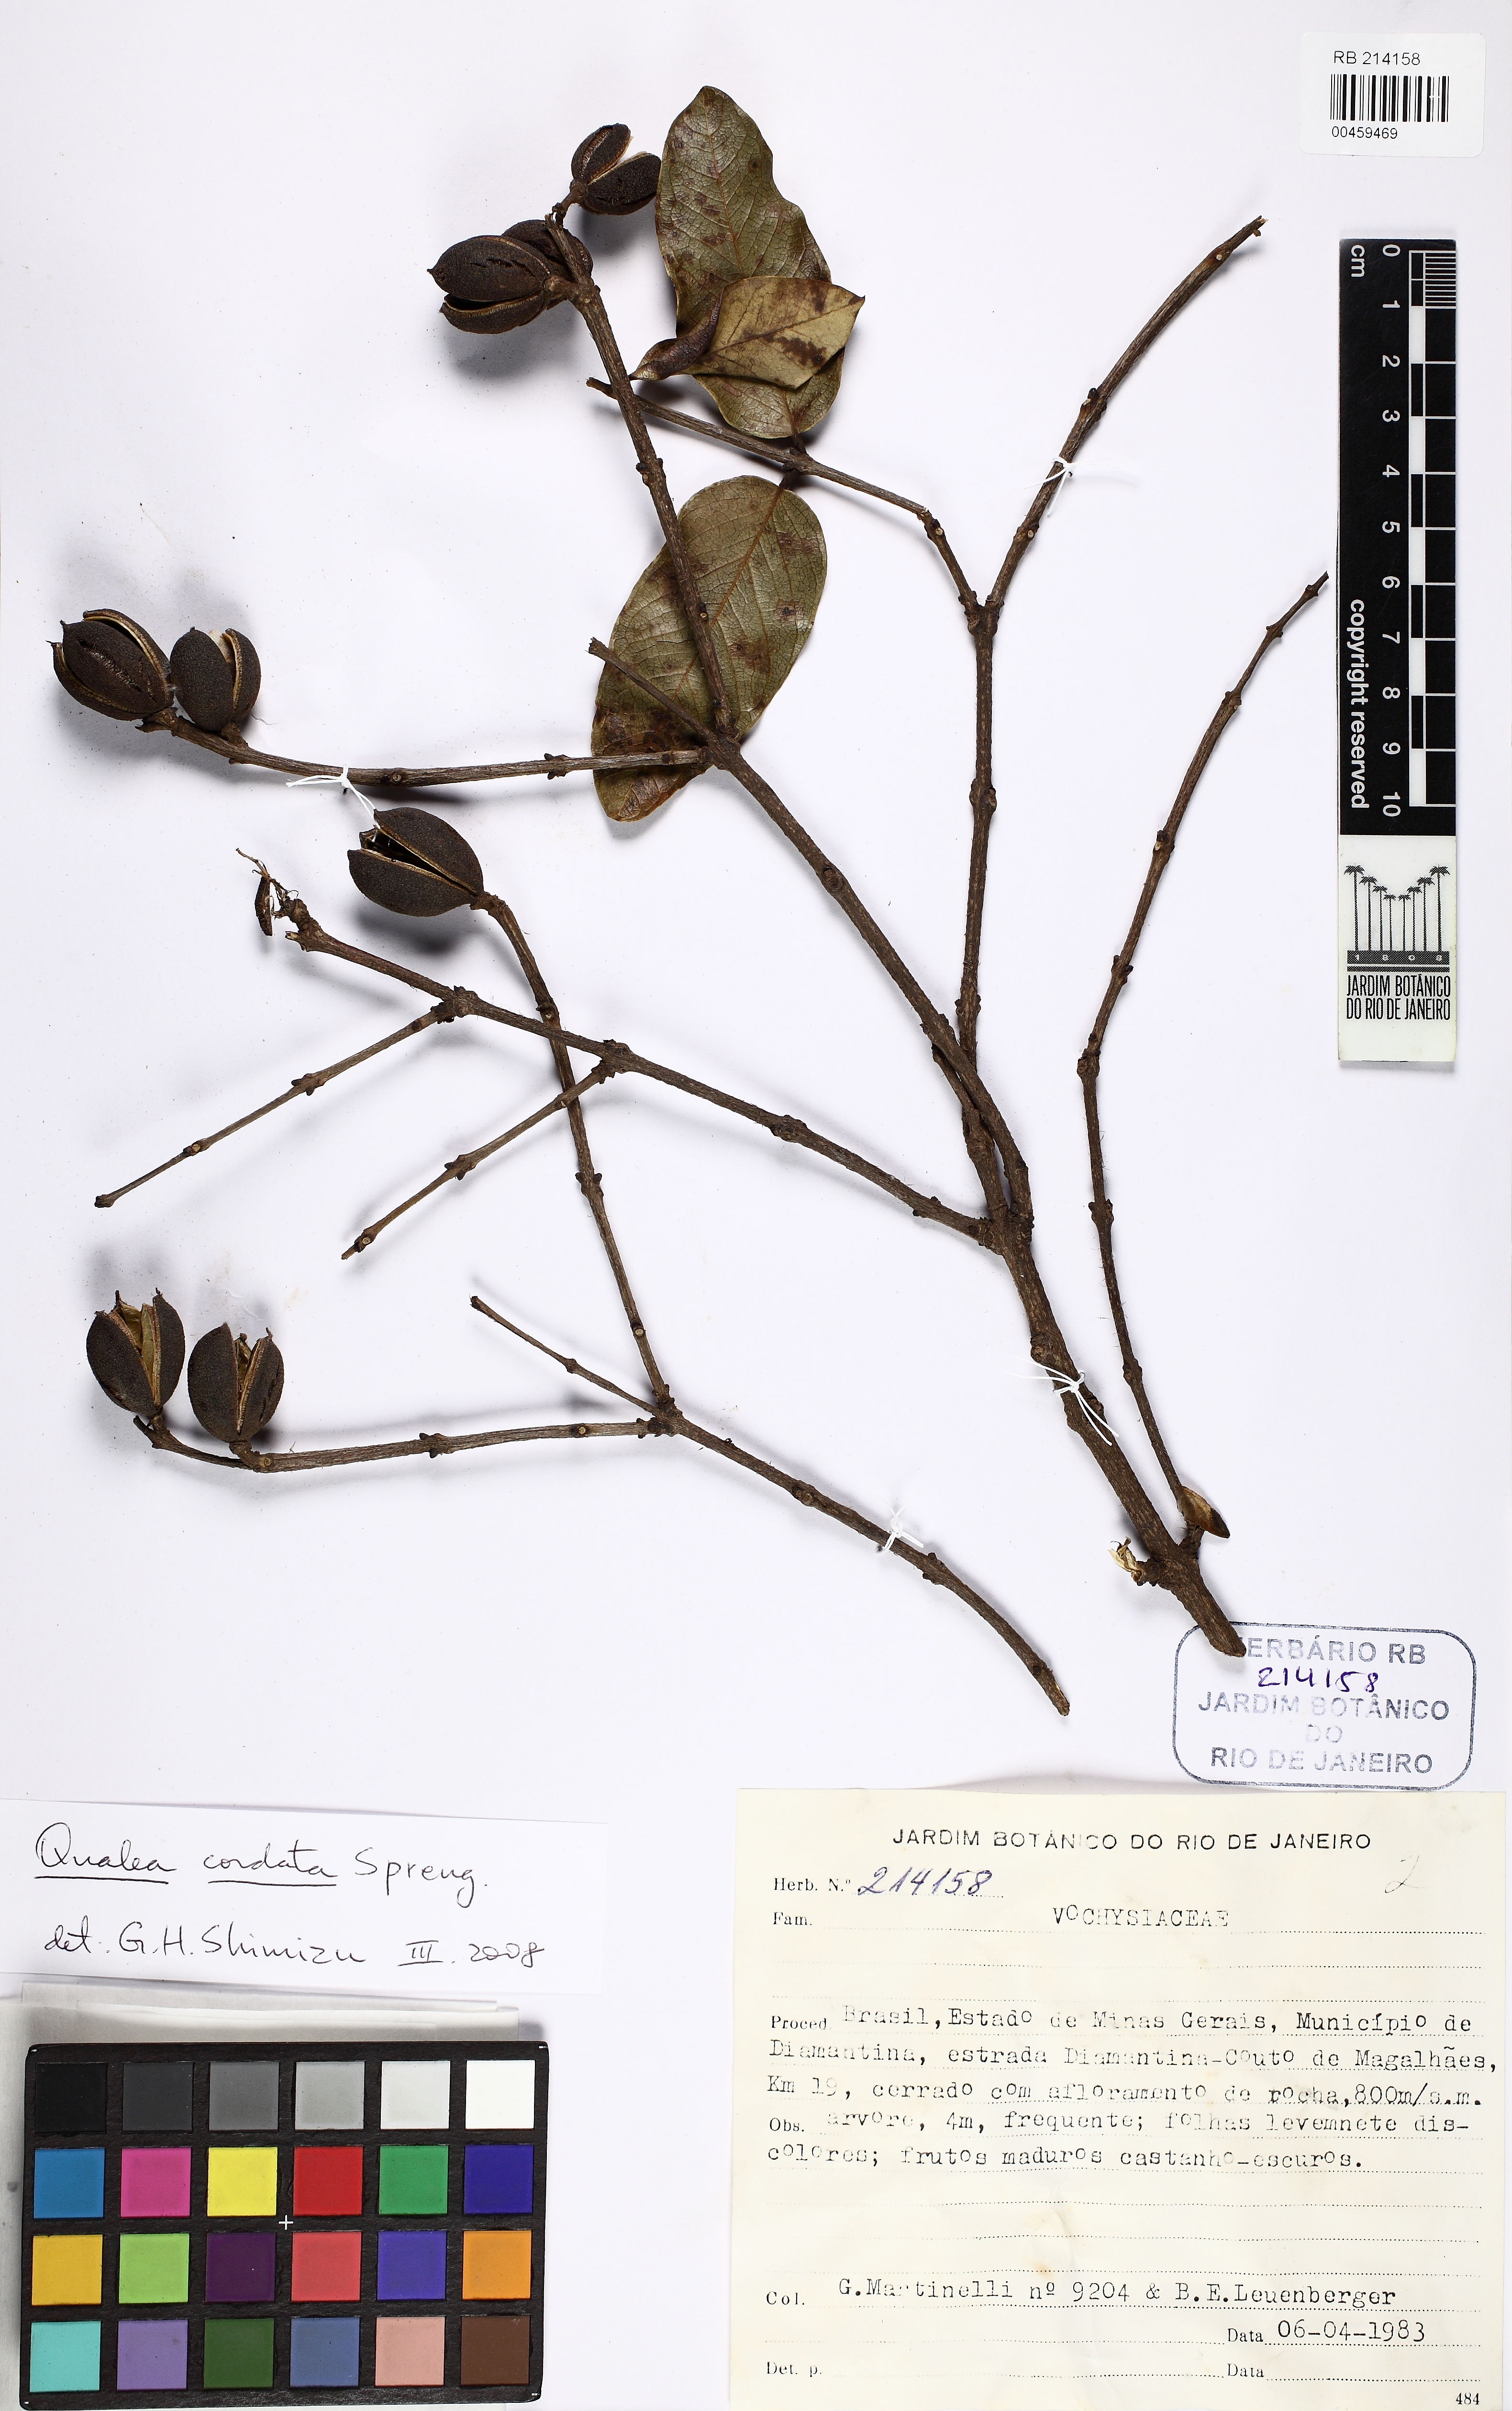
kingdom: Plantae
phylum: Tracheophyta
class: Magnoliopsida
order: Myrtales
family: Vochysiaceae
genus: Qualea
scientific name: Qualea cordata
